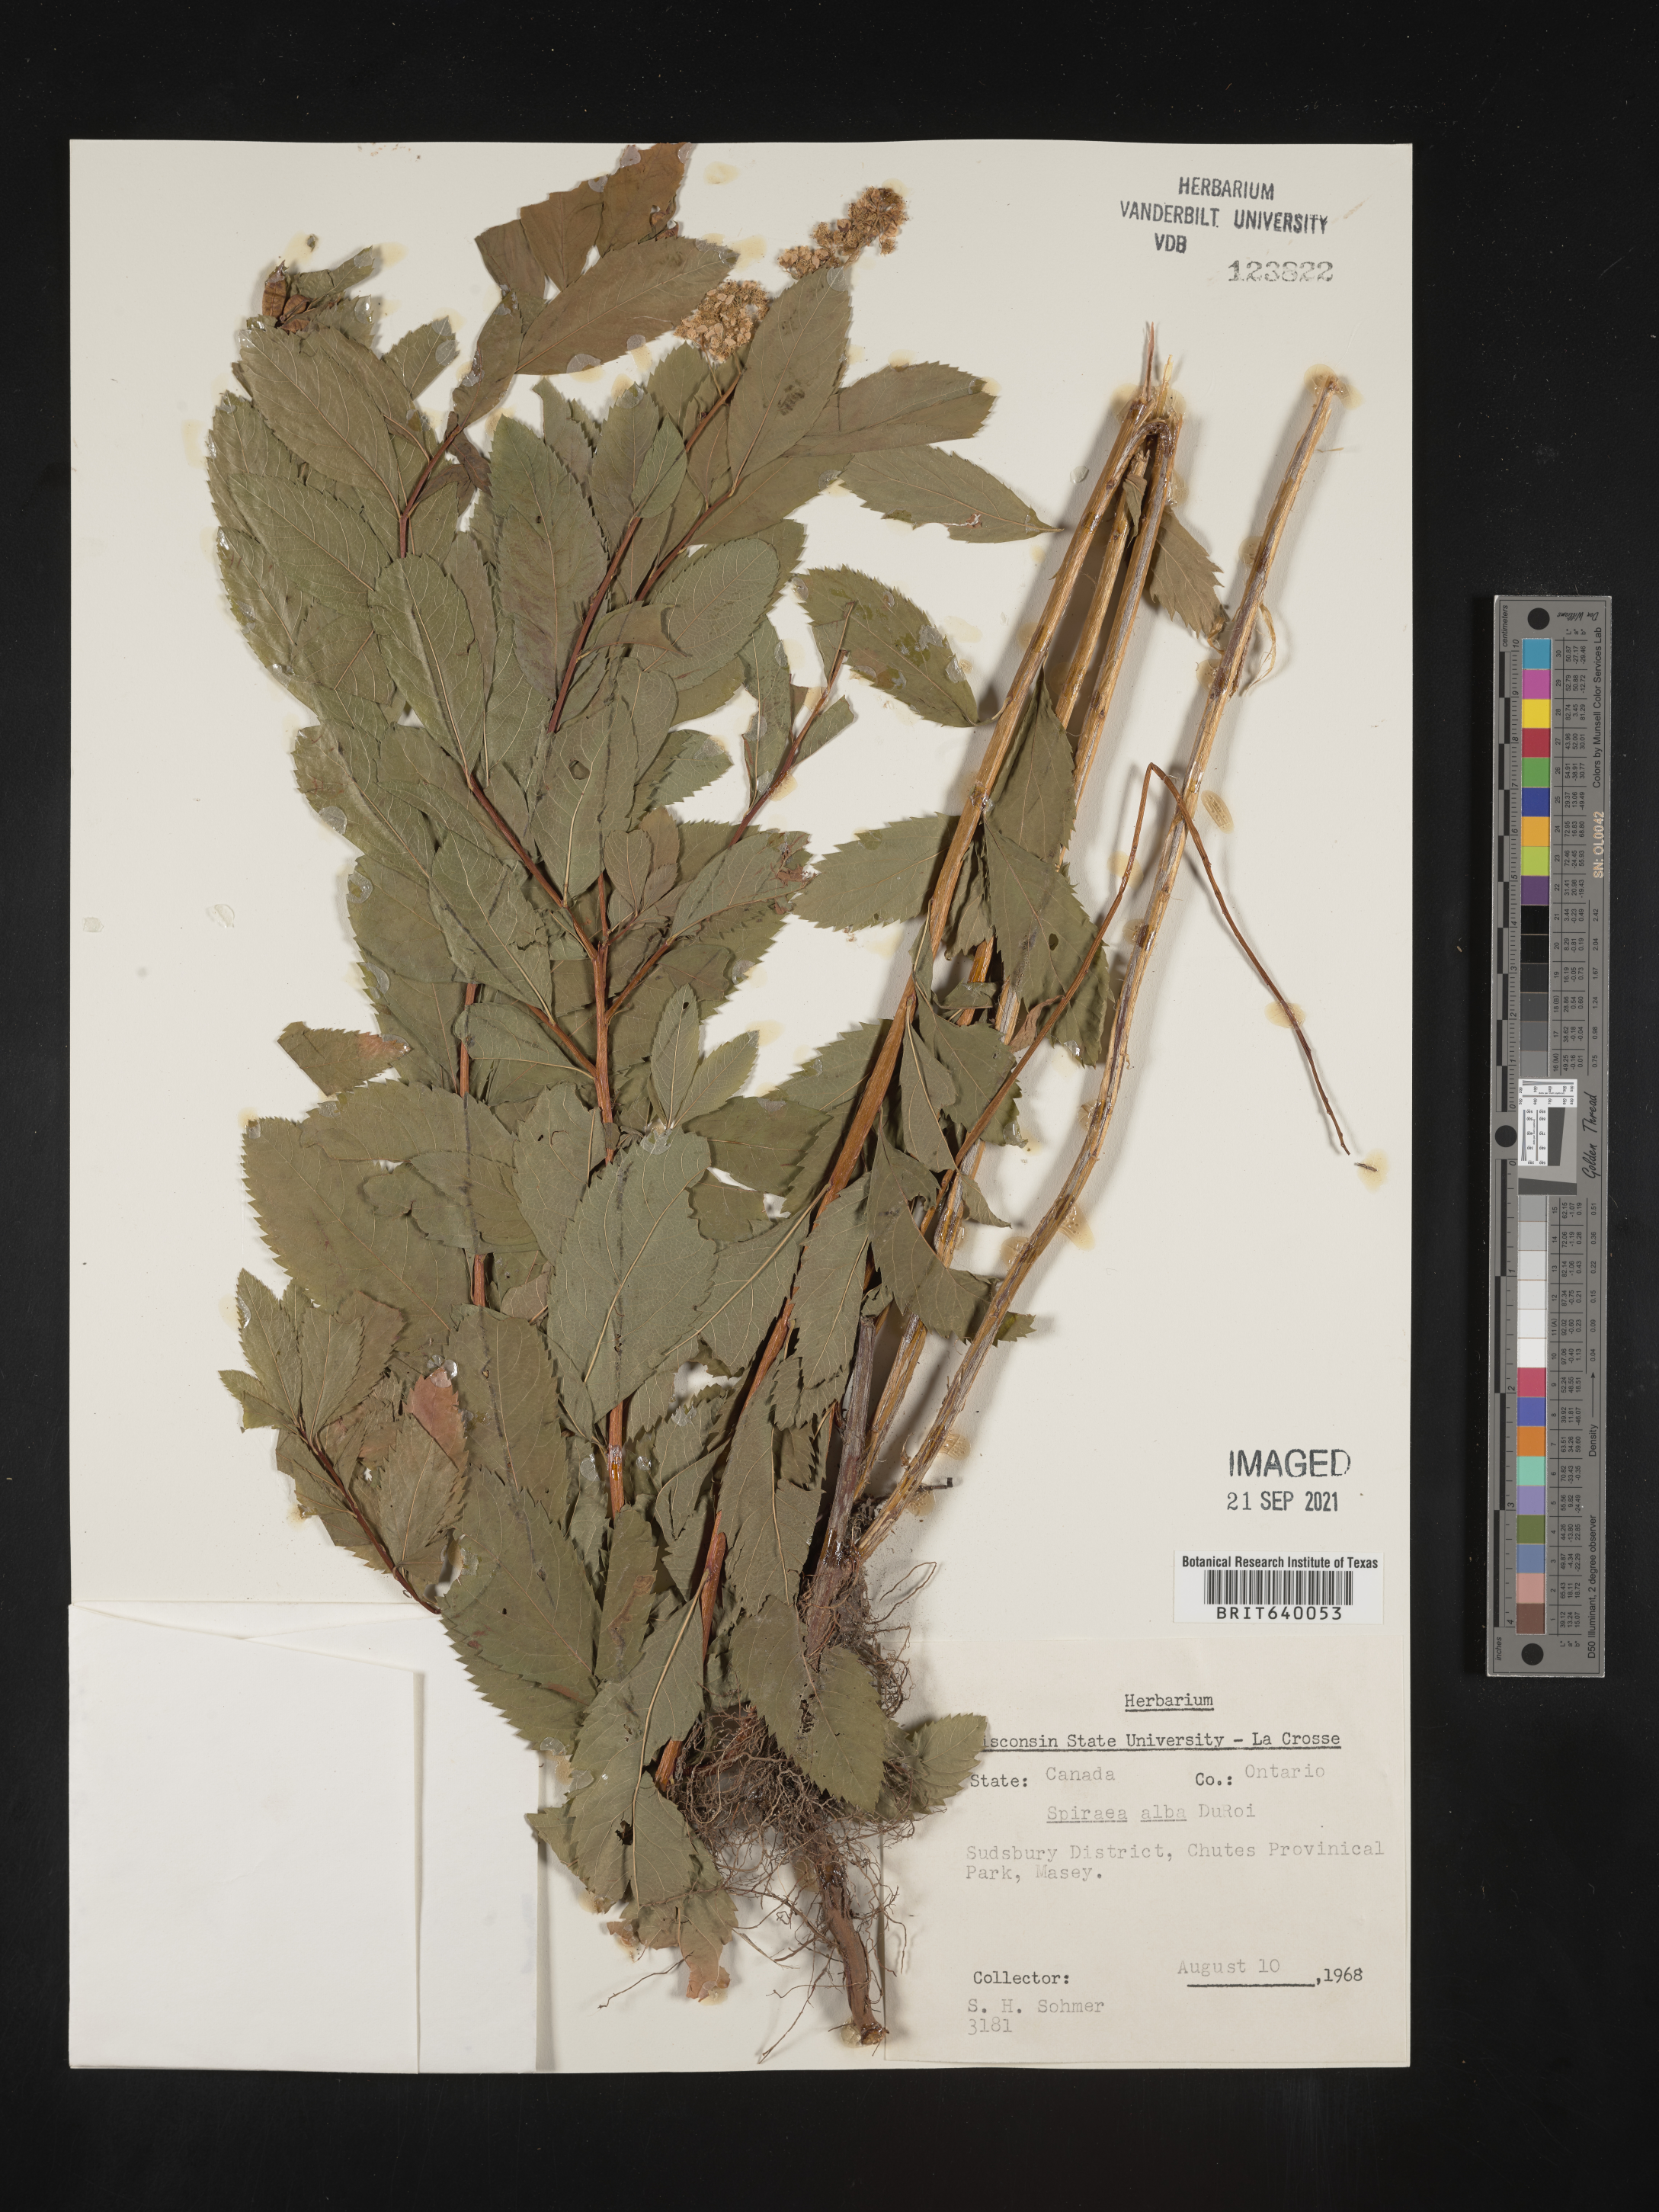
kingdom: Plantae
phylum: Tracheophyta
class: Magnoliopsida
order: Rosales
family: Rosaceae
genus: Spiraea
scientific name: Spiraea
